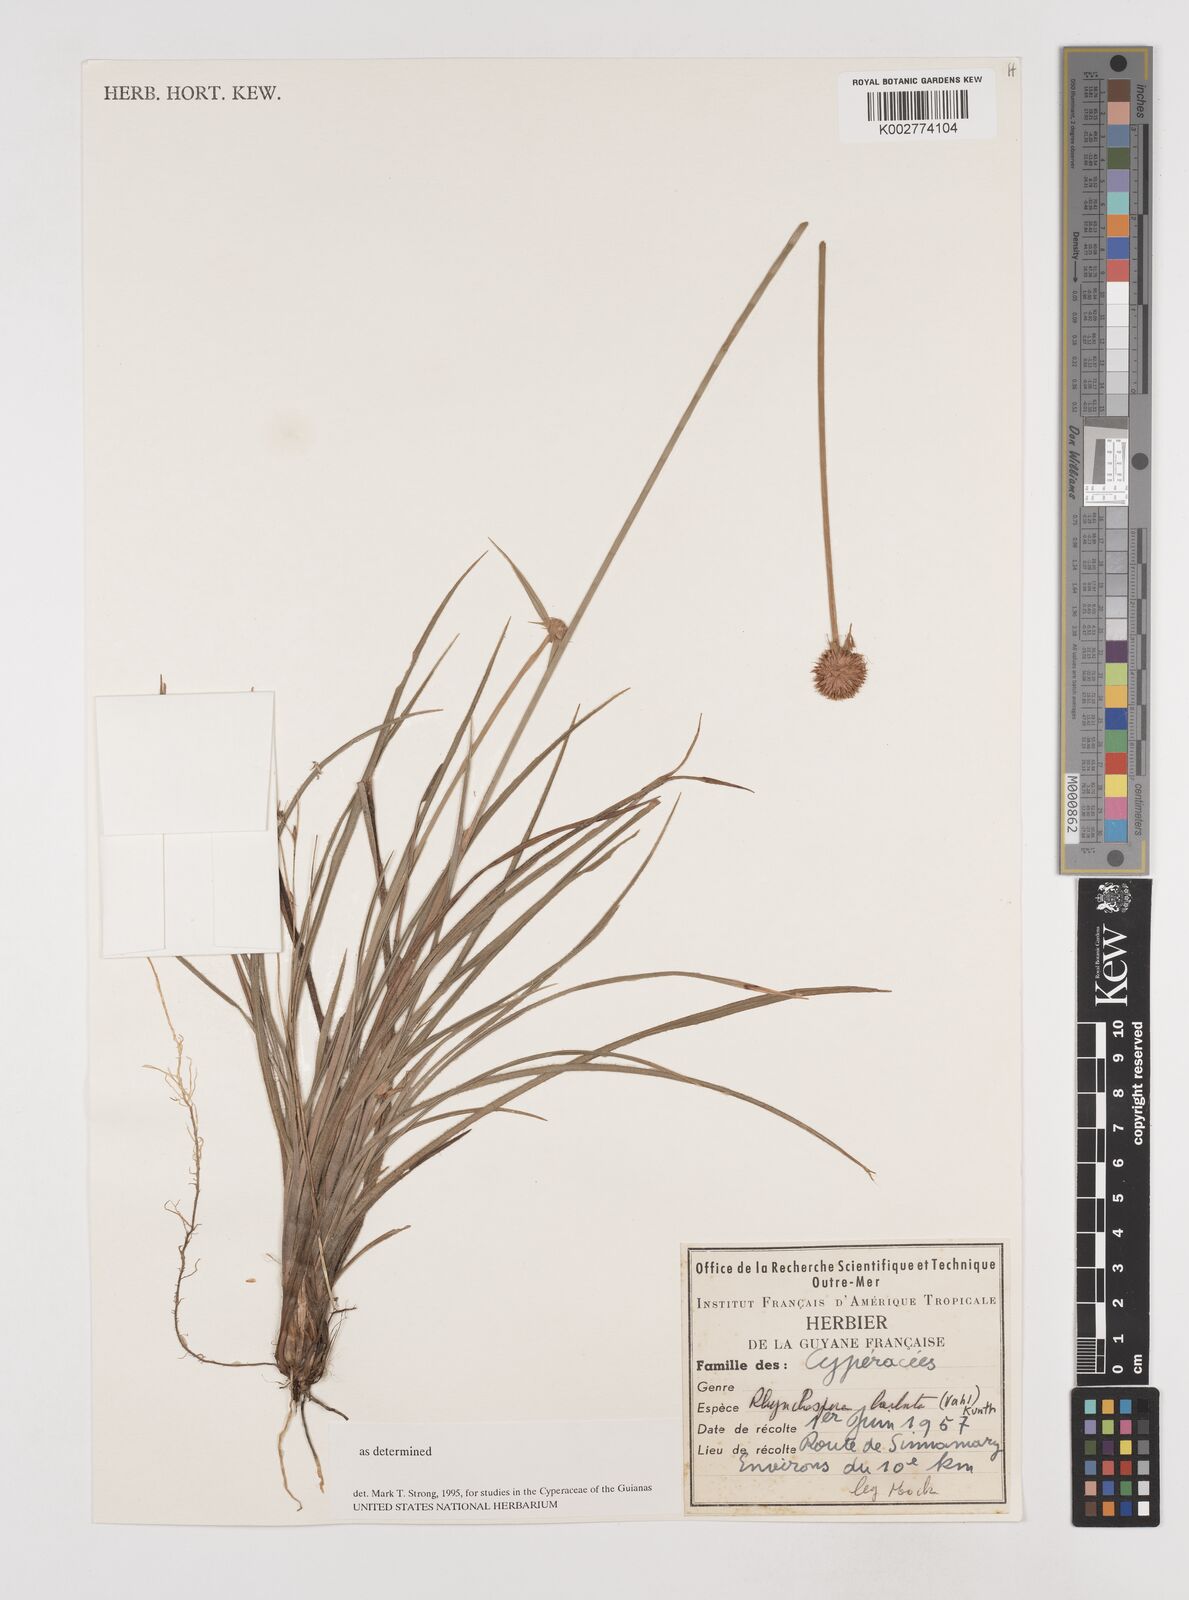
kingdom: Plantae
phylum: Tracheophyta
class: Liliopsida
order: Poales
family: Cyperaceae
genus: Rhynchospora
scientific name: Rhynchospora barbata
